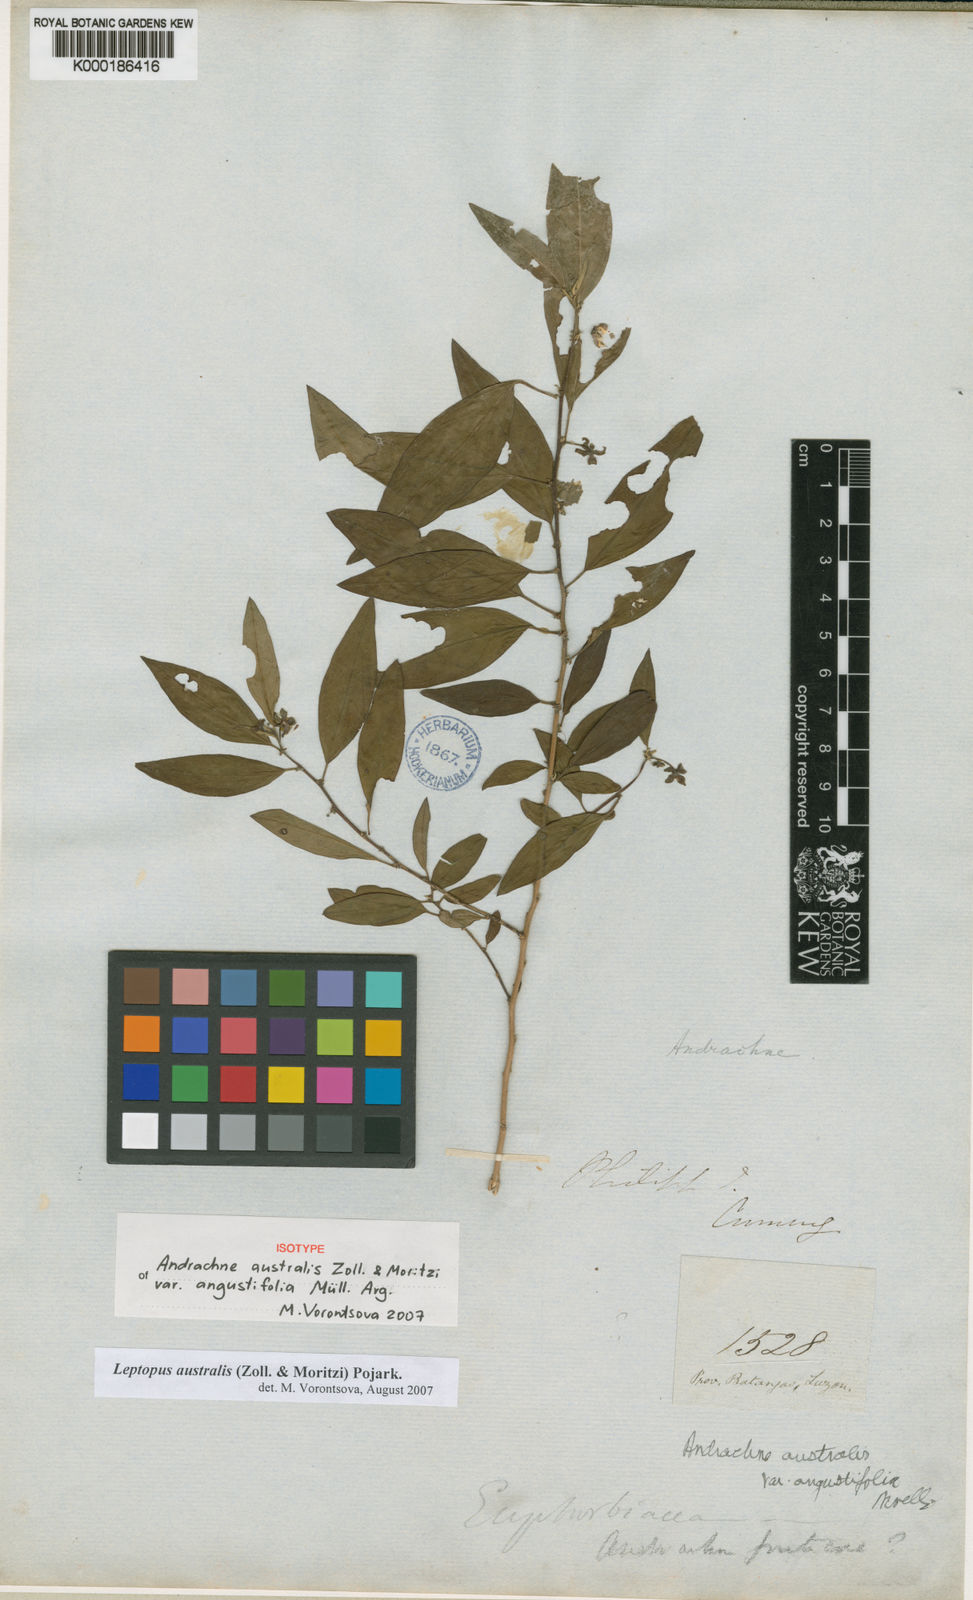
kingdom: Plantae
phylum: Tracheophyta
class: Magnoliopsida
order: Malpighiales
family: Phyllanthaceae
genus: Leptopus
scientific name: Leptopus australis
